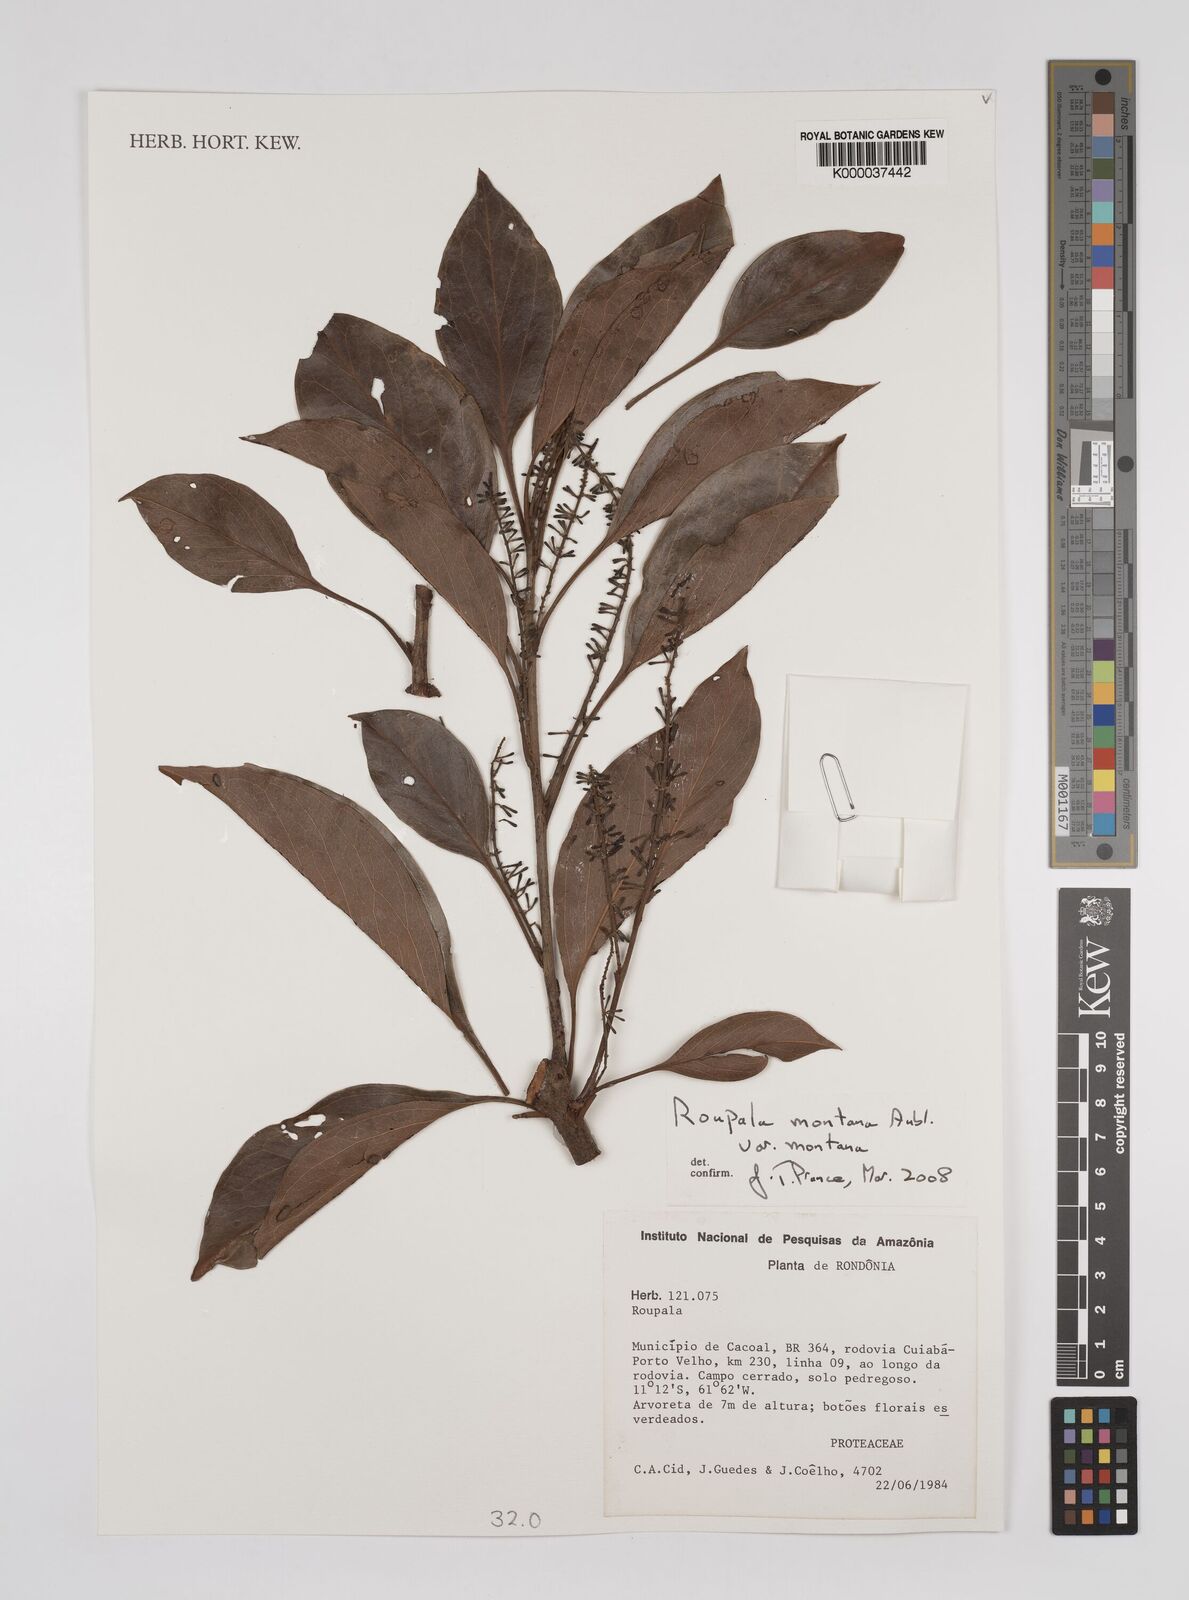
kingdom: Plantae
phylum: Tracheophyta
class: Magnoliopsida
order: Proteales
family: Proteaceae
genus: Roupala
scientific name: Roupala montana
